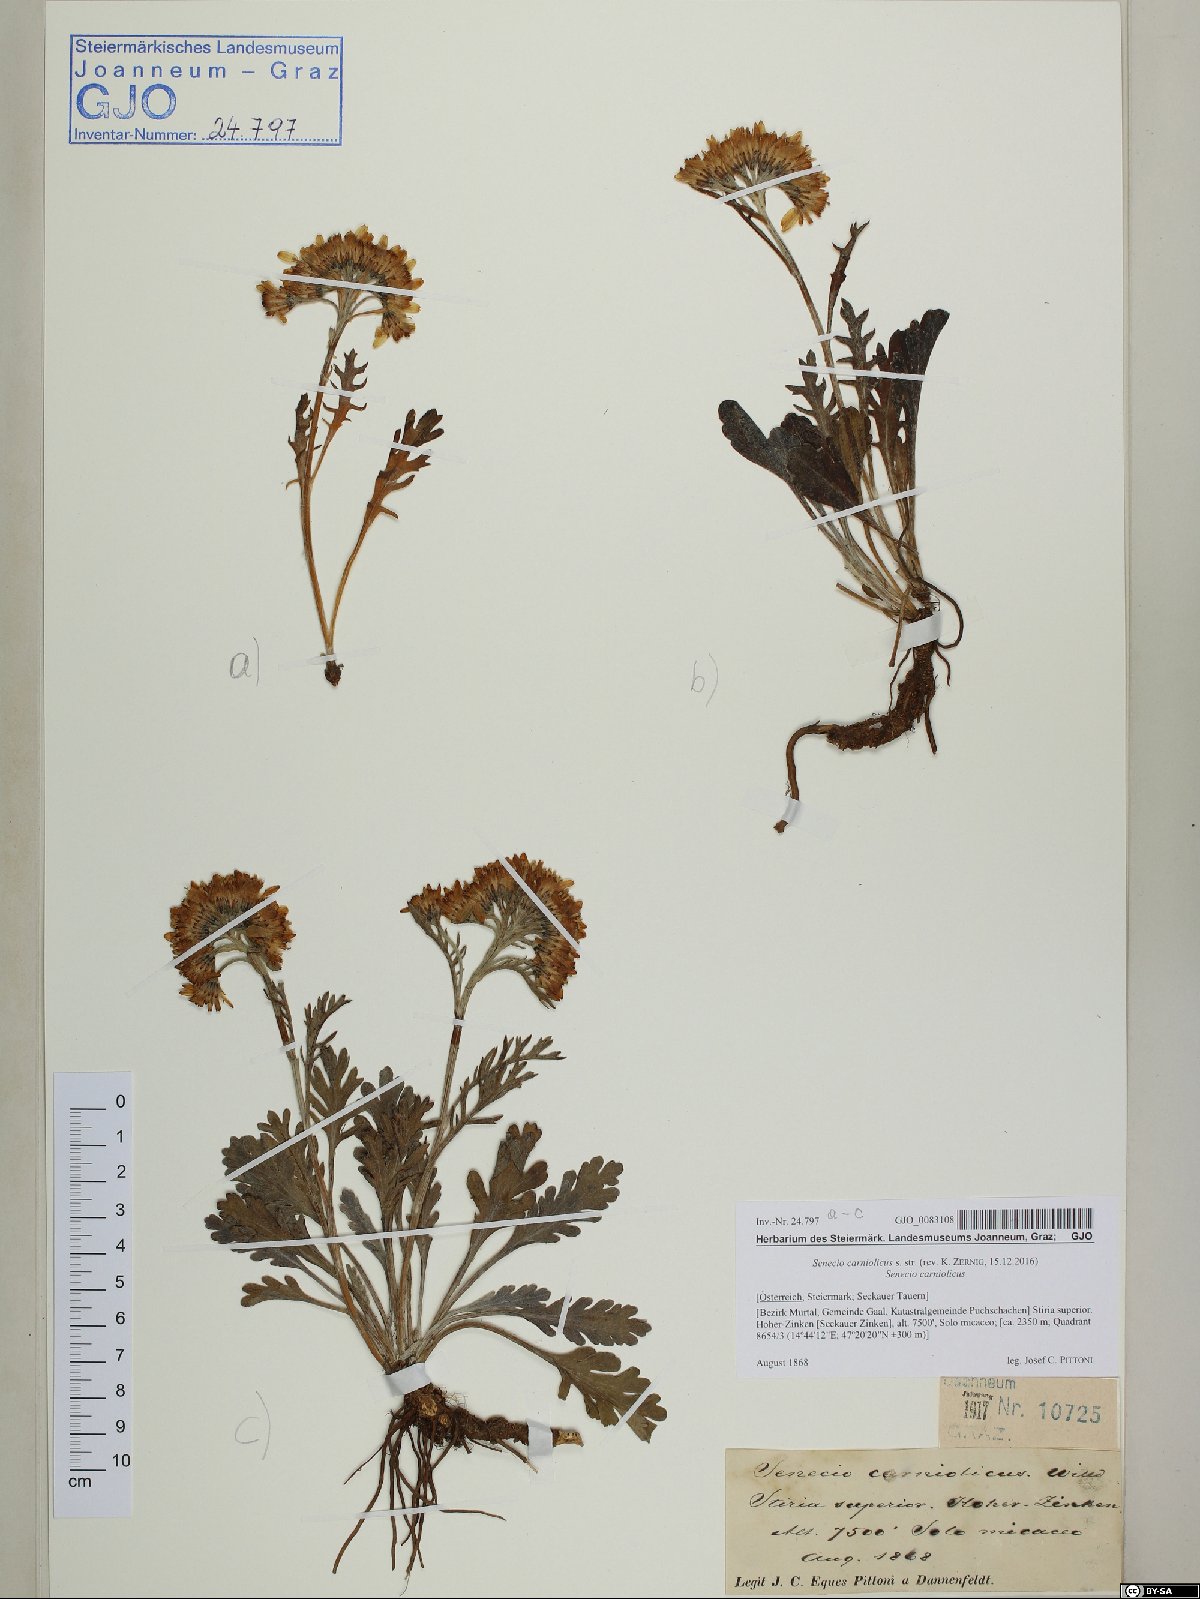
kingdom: Plantae
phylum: Tracheophyta
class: Magnoliopsida
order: Asterales
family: Asteraceae
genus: Jacobaea
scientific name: Jacobaea carniolica
